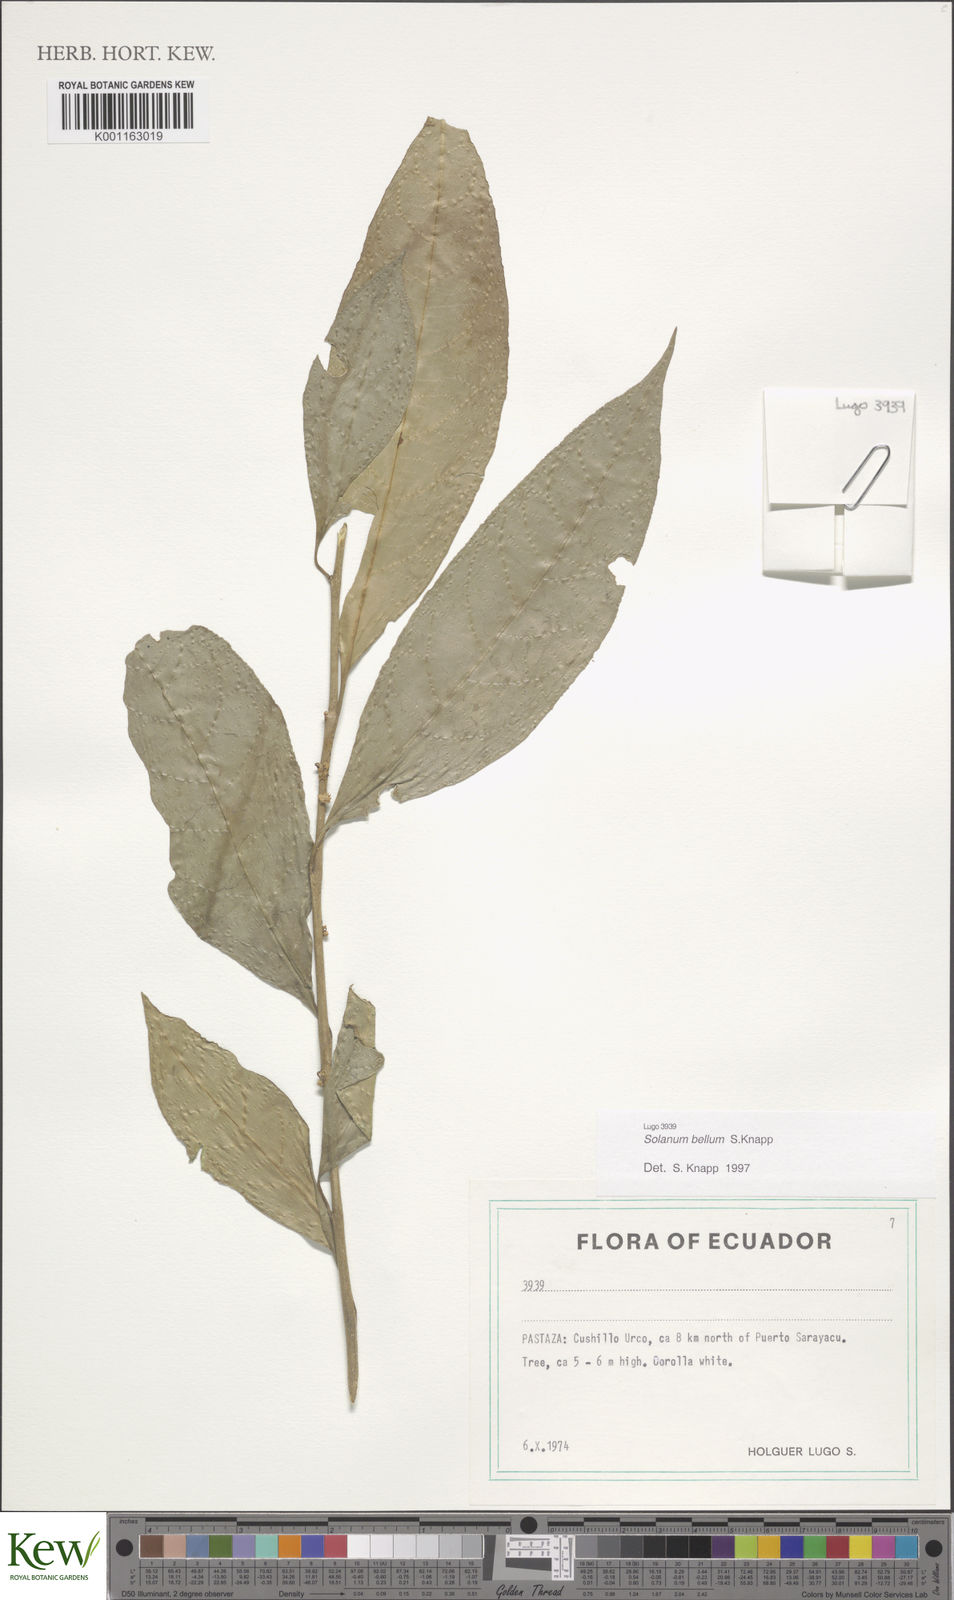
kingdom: Plantae
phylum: Tracheophyta
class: Magnoliopsida
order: Solanales
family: Solanaceae
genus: Solanum
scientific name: Solanum bellum
